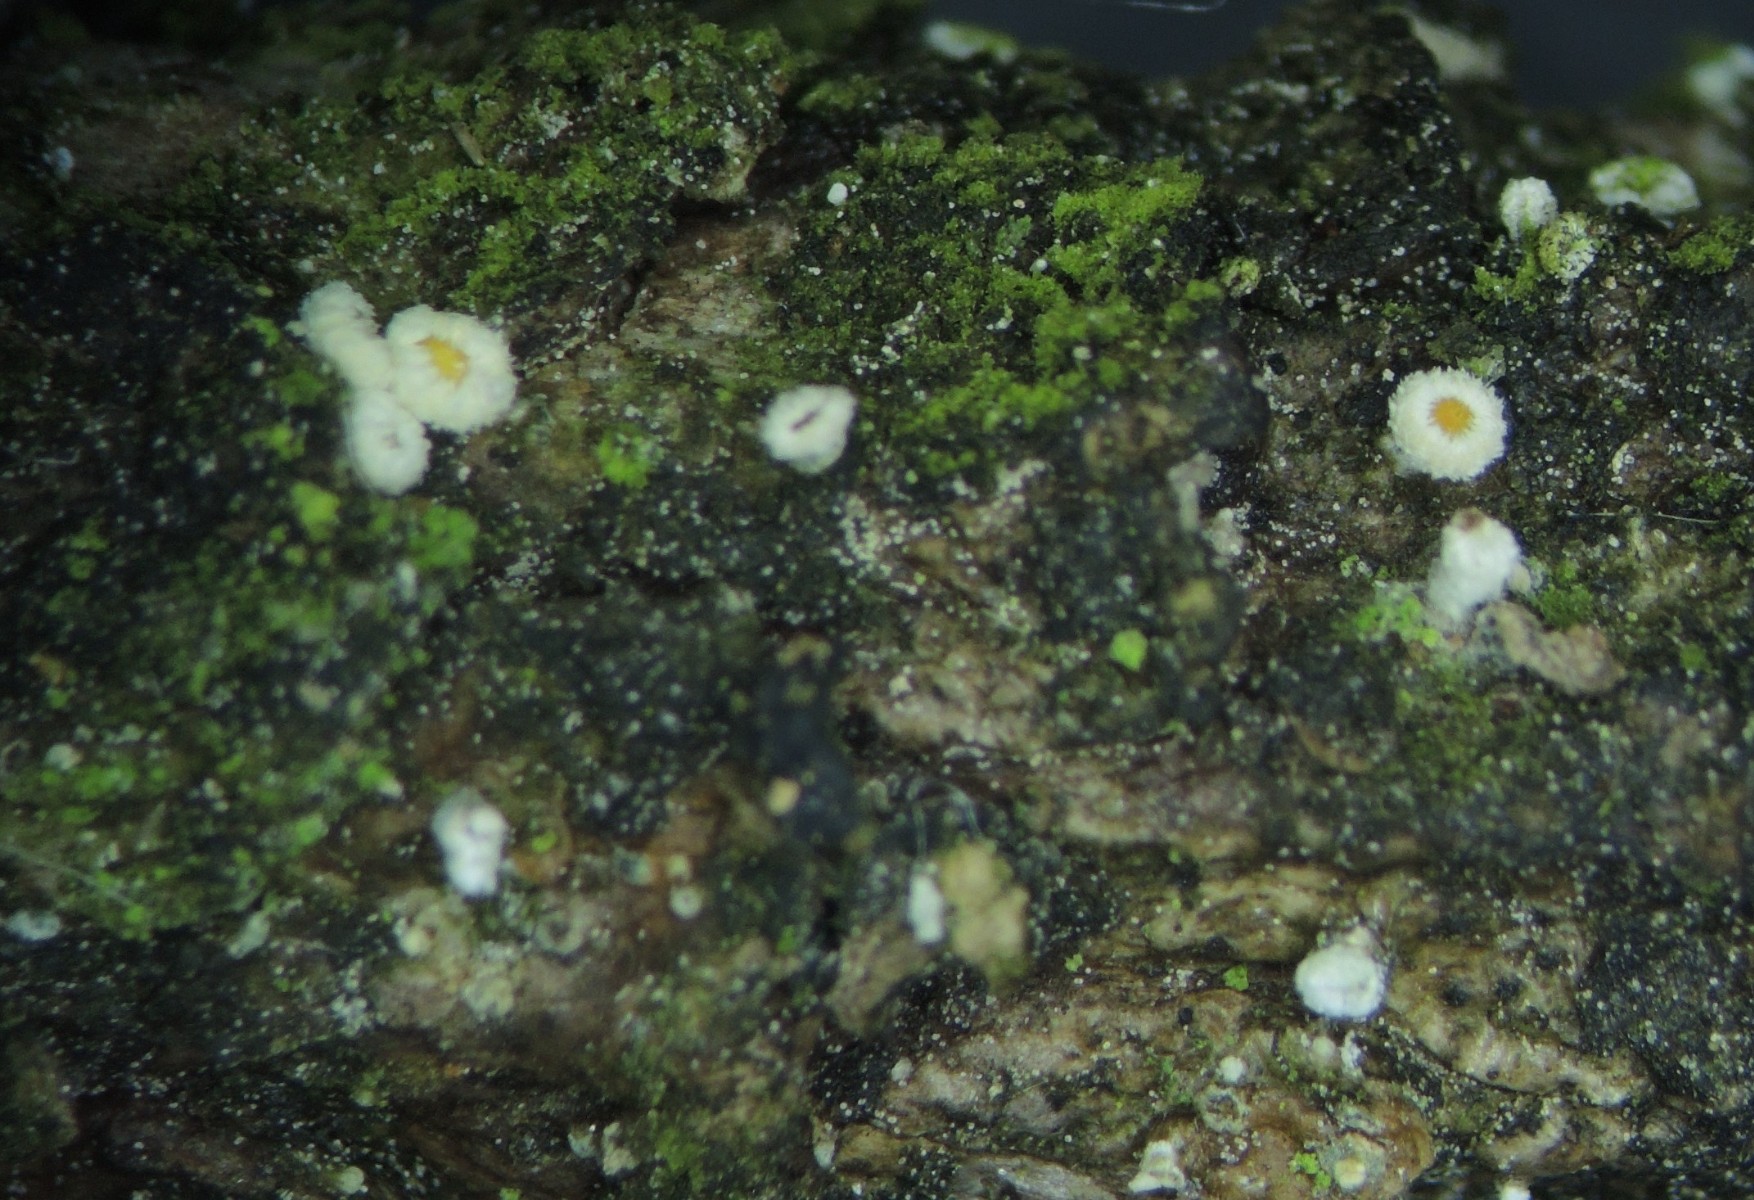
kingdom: Fungi
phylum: Ascomycota
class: Leotiomycetes
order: Helotiales
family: Lachnaceae
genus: Lachnellula
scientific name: Lachnellula pseudofarinacea
